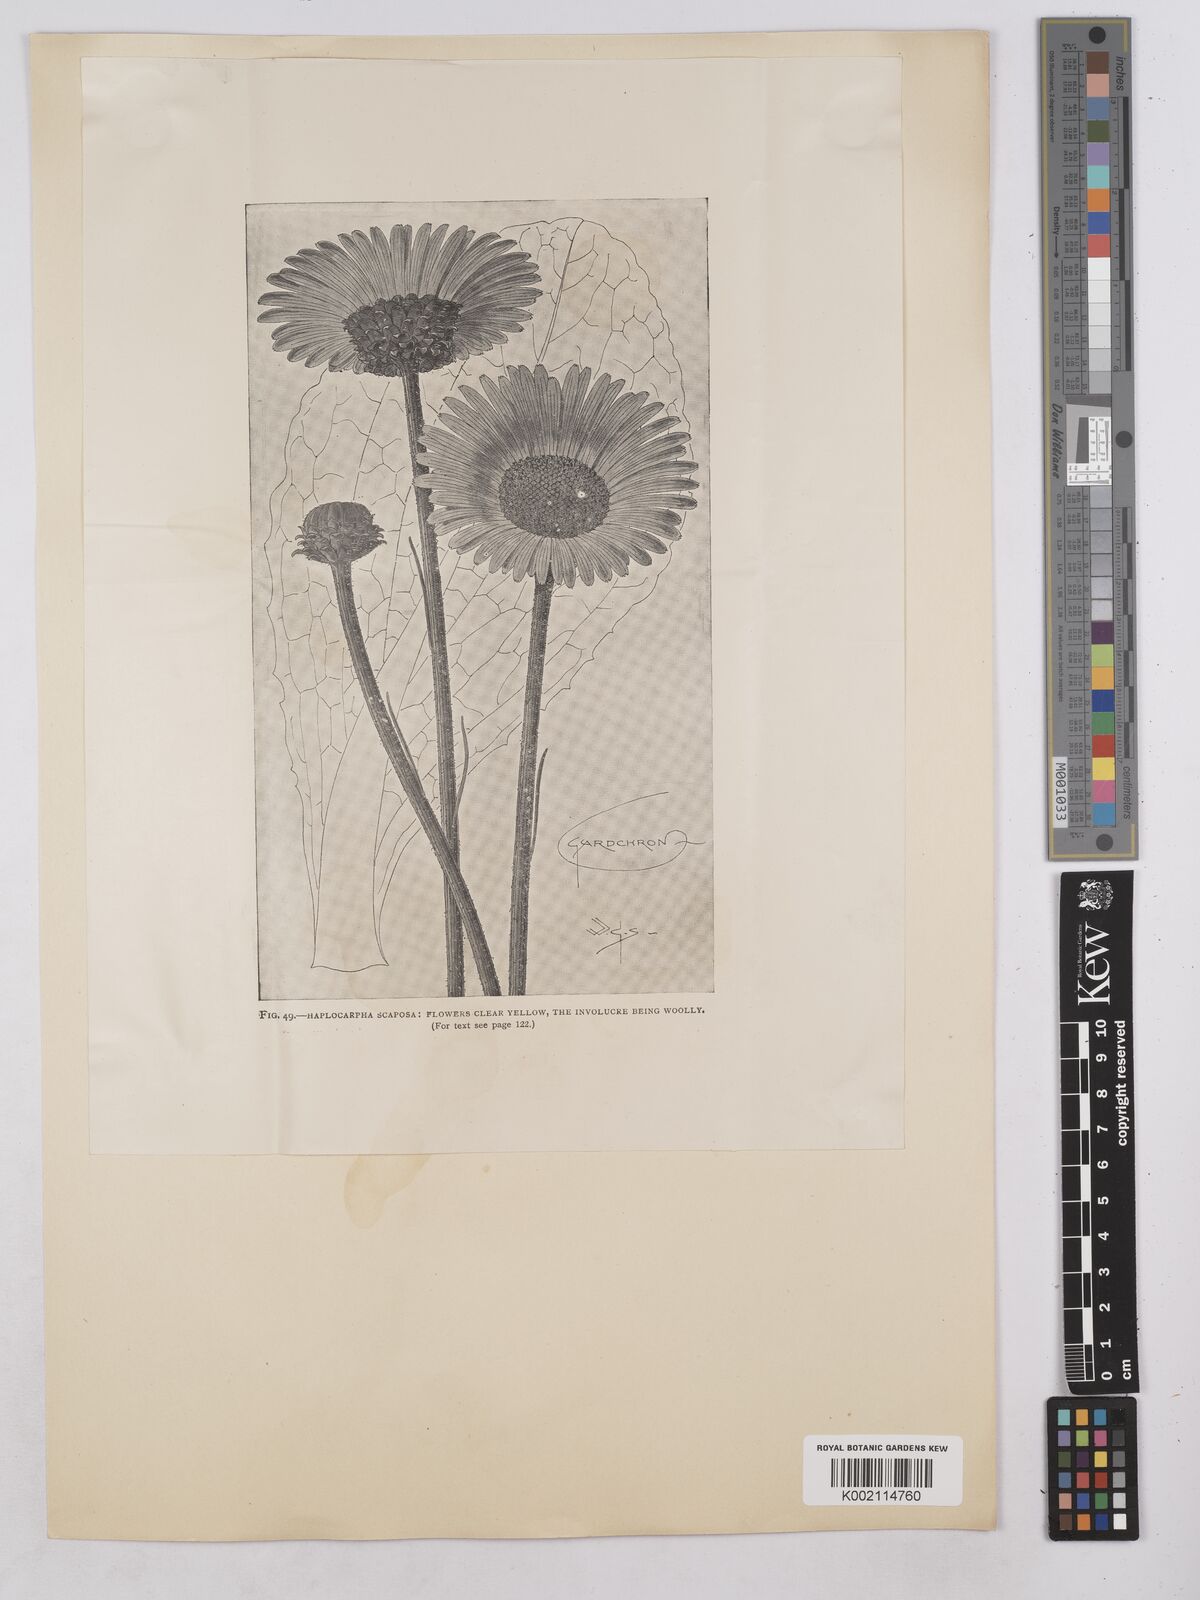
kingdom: Plantae
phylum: Tracheophyta
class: Magnoliopsida
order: Asterales
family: Asteraceae
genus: Haplocarpha
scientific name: Haplocarpha scaposa
